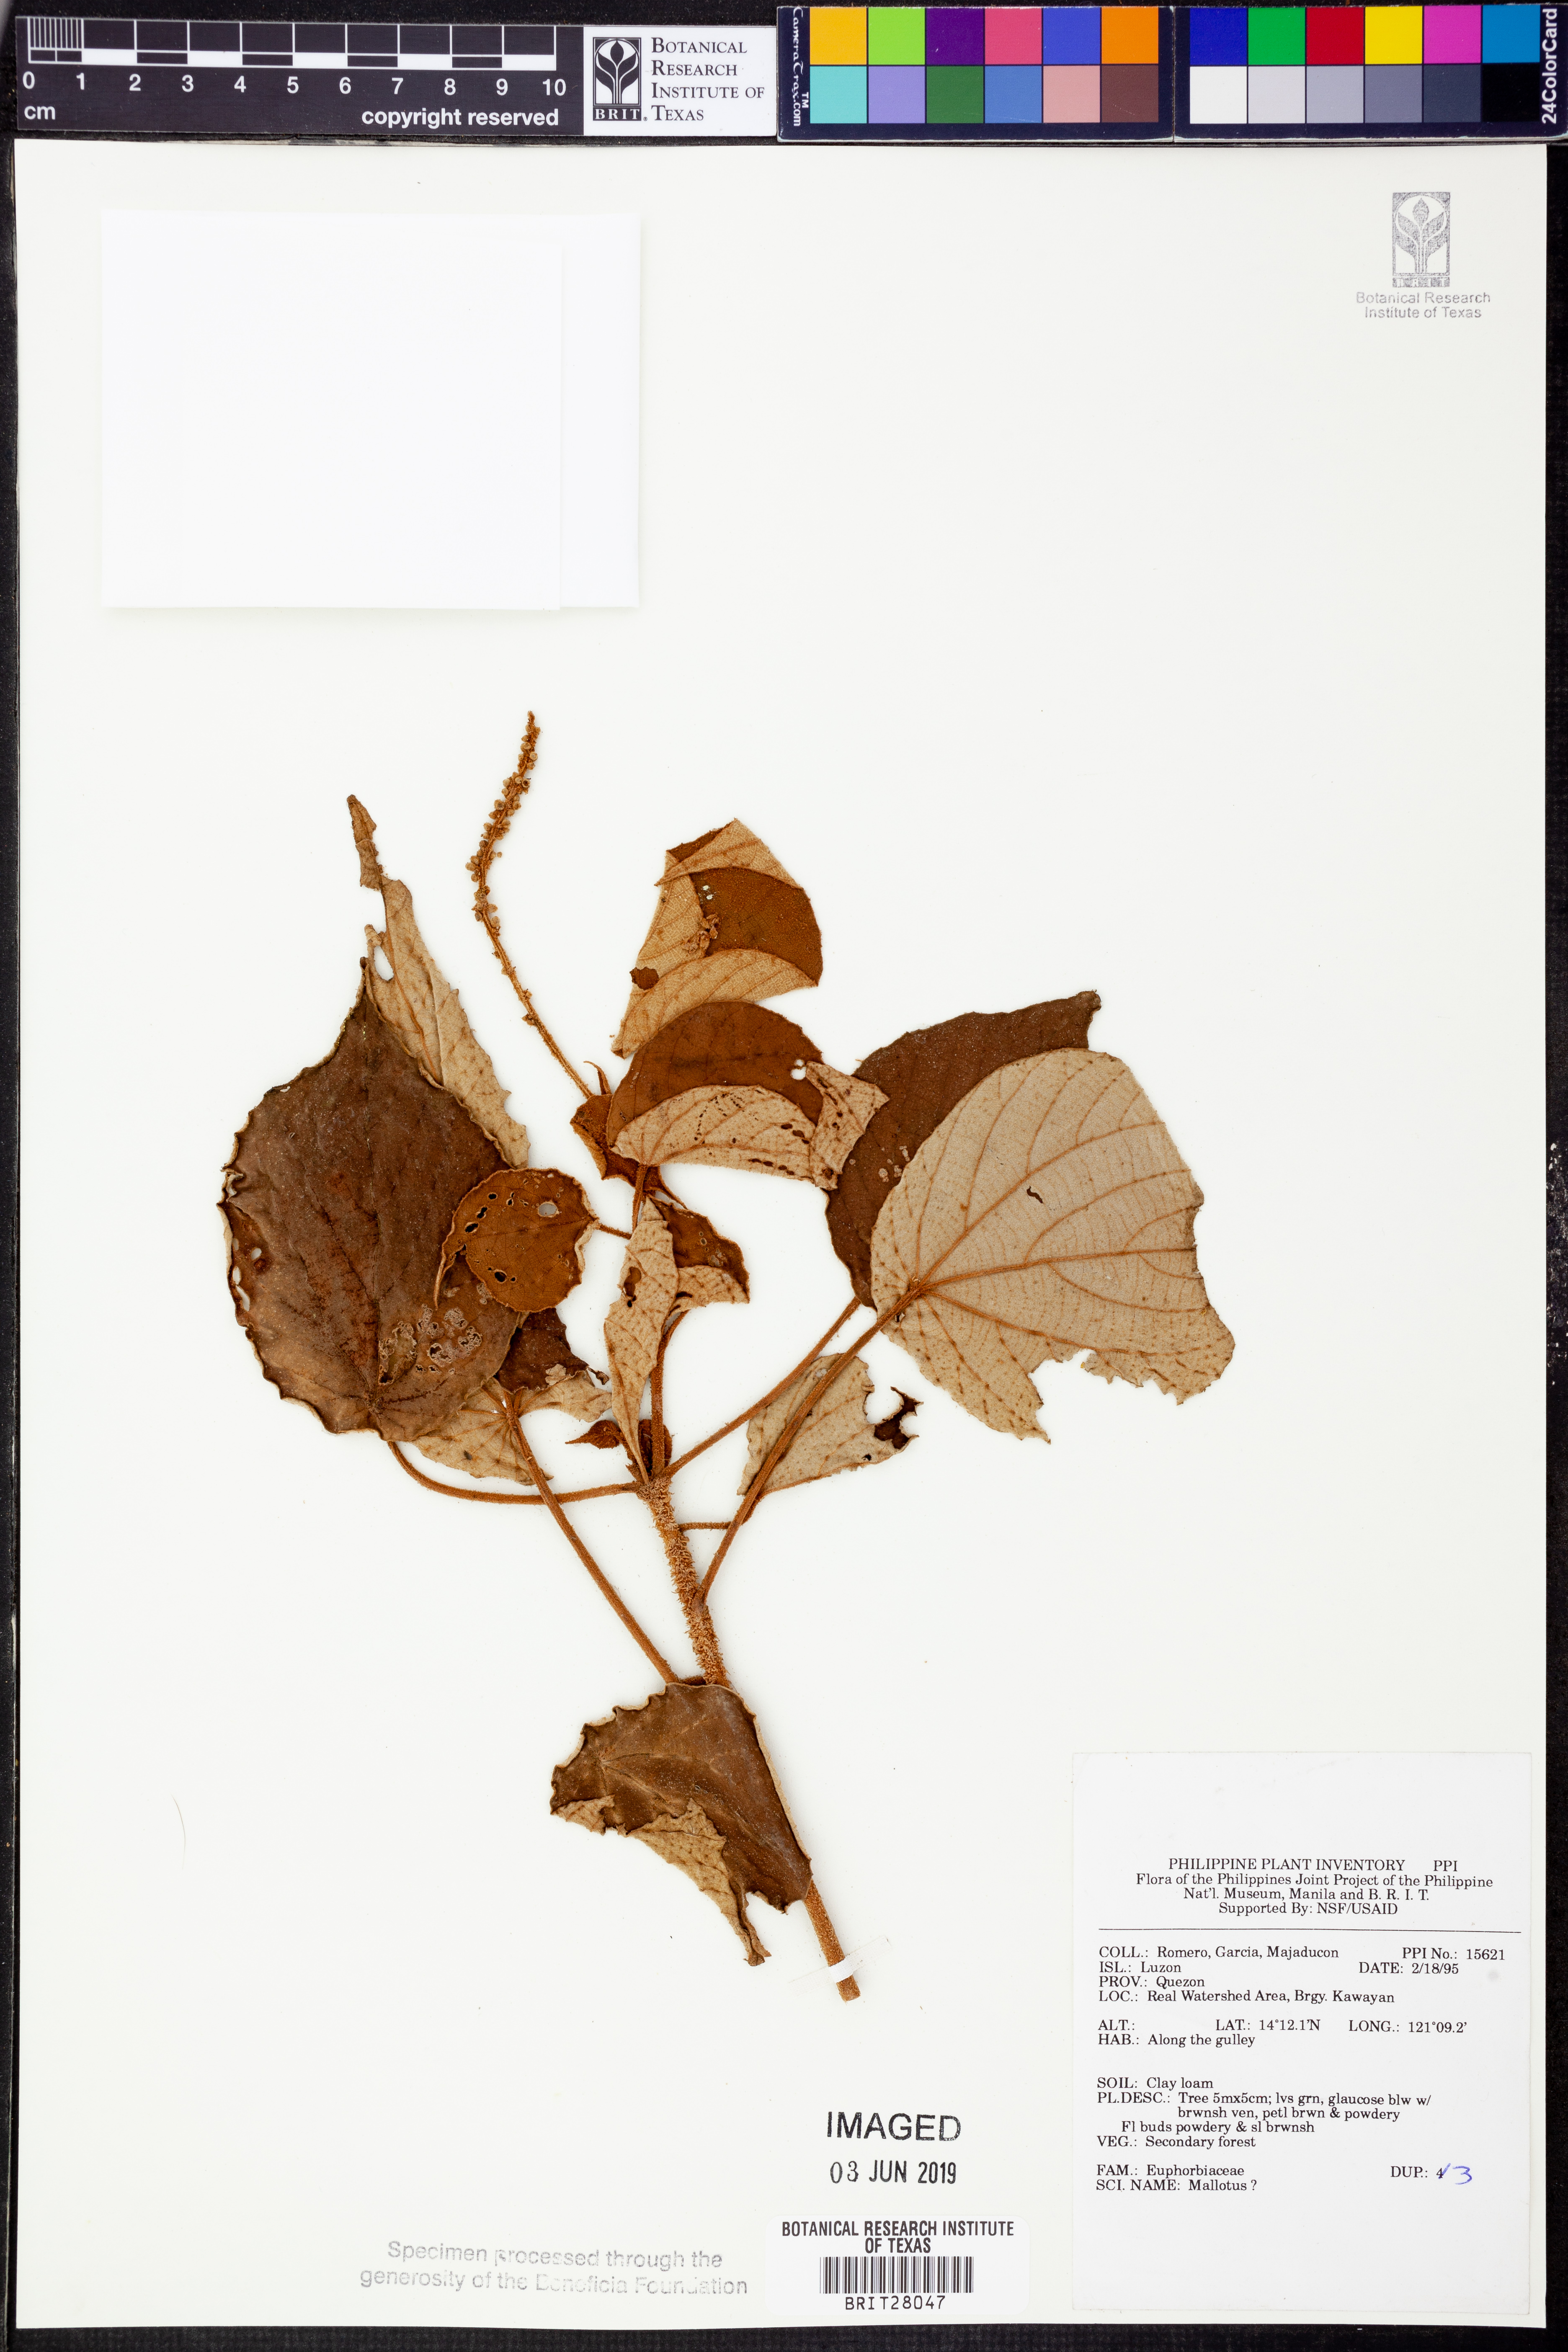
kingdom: Plantae
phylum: Tracheophyta
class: Magnoliopsida
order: Boraginales
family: Heliotropiaceae
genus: Tournefortia
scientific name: Tournefortia
